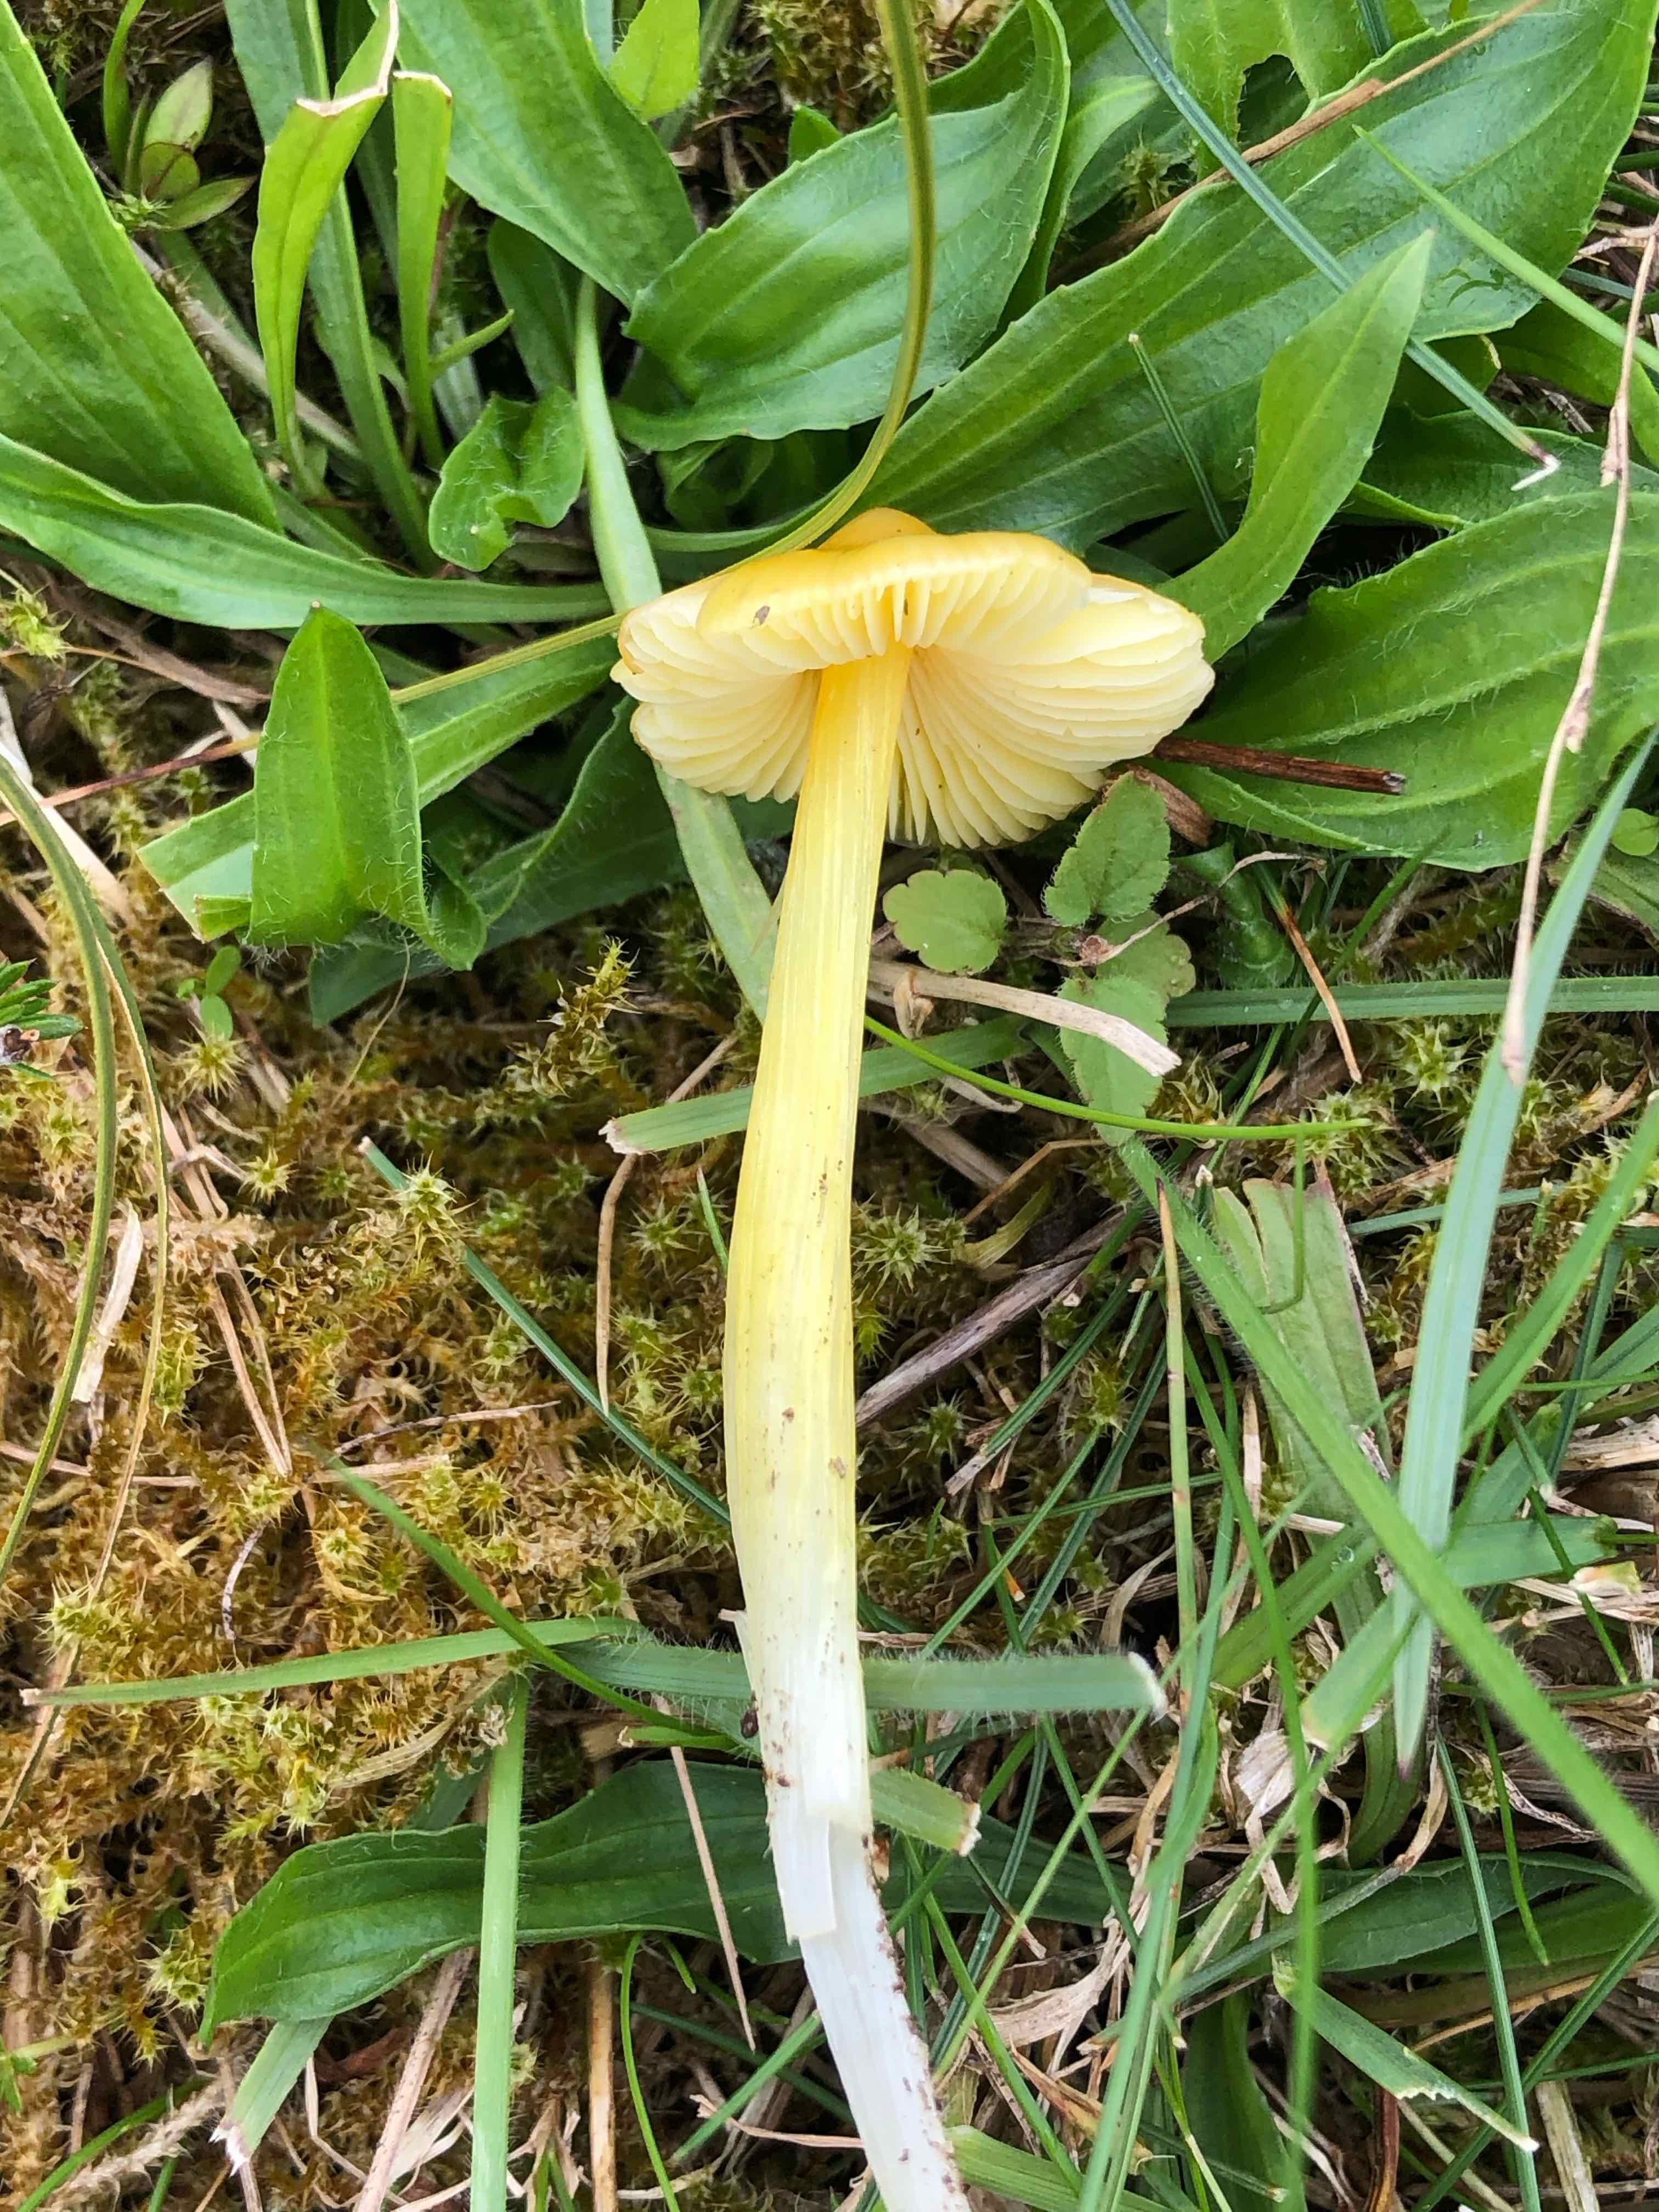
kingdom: Fungi
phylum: Basidiomycota
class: Agaricomycetes
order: Agaricales
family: Hygrophoraceae
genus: Hygrocybe
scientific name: Hygrocybe
